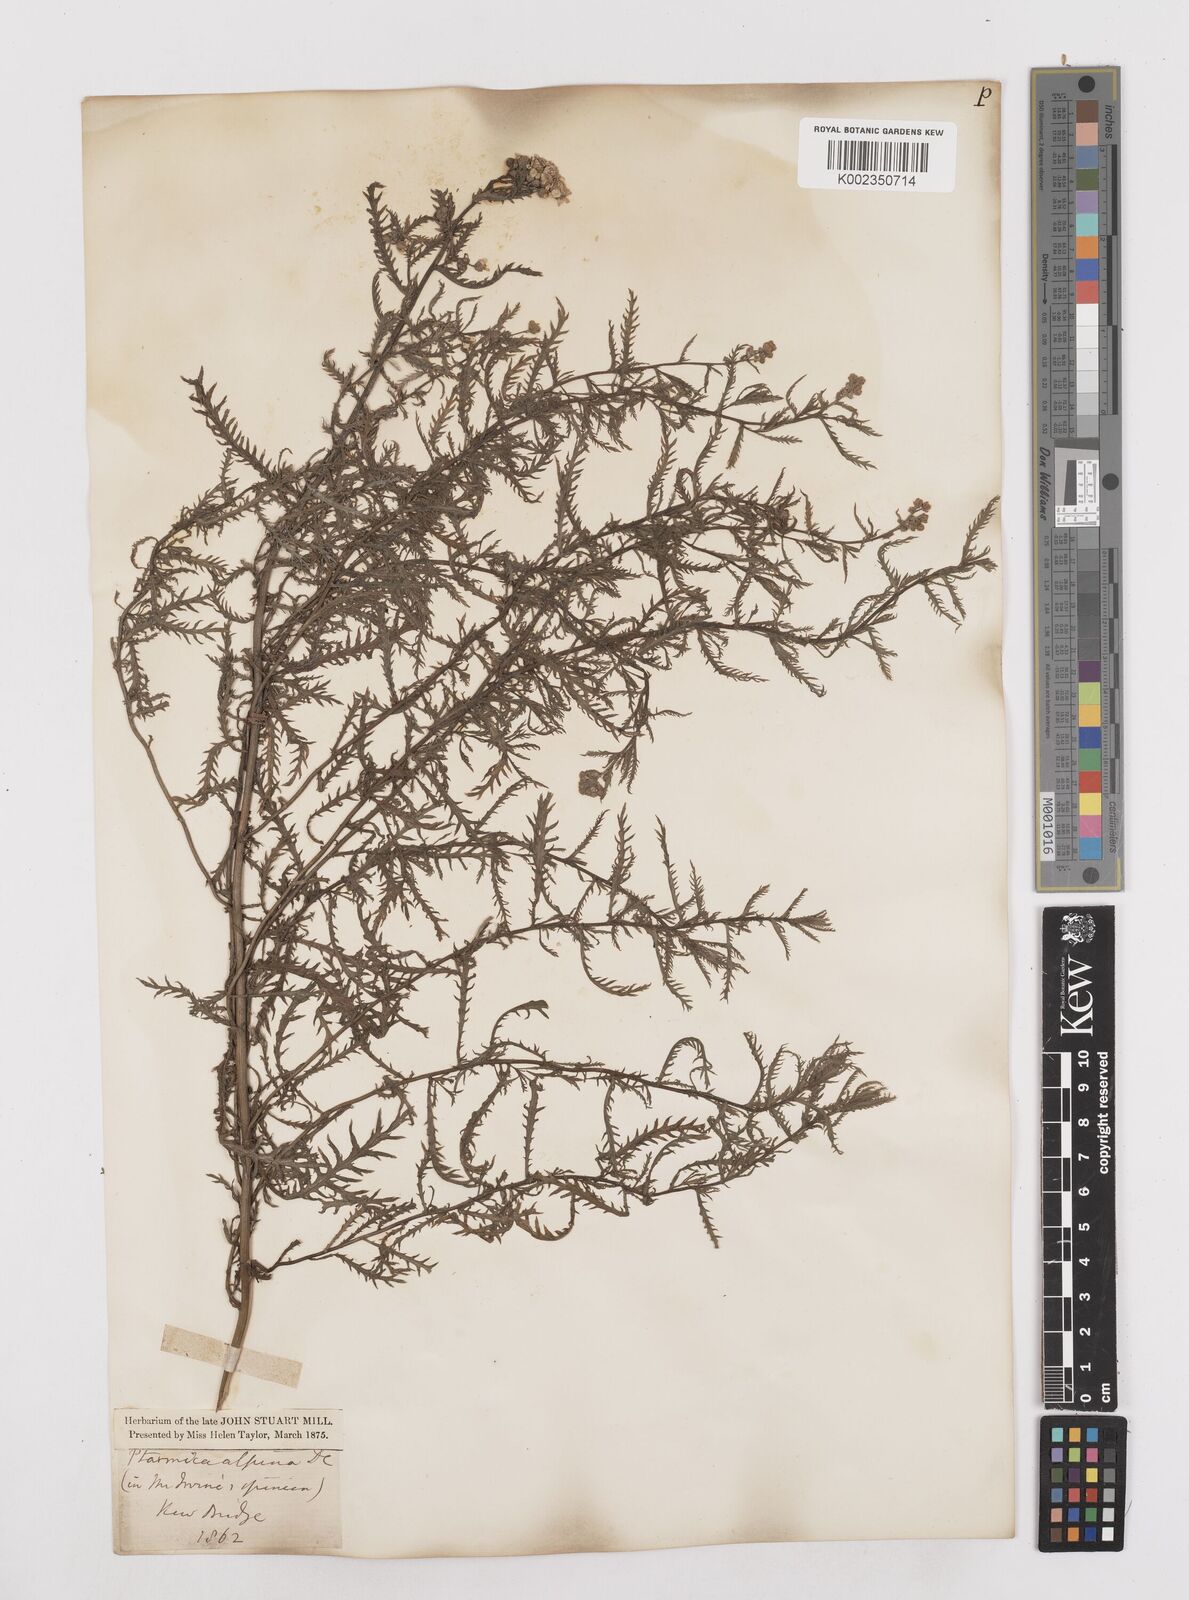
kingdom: Plantae
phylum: Tracheophyta
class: Magnoliopsida
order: Asterales
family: Asteraceae
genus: Achillea
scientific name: Achillea impatiens
